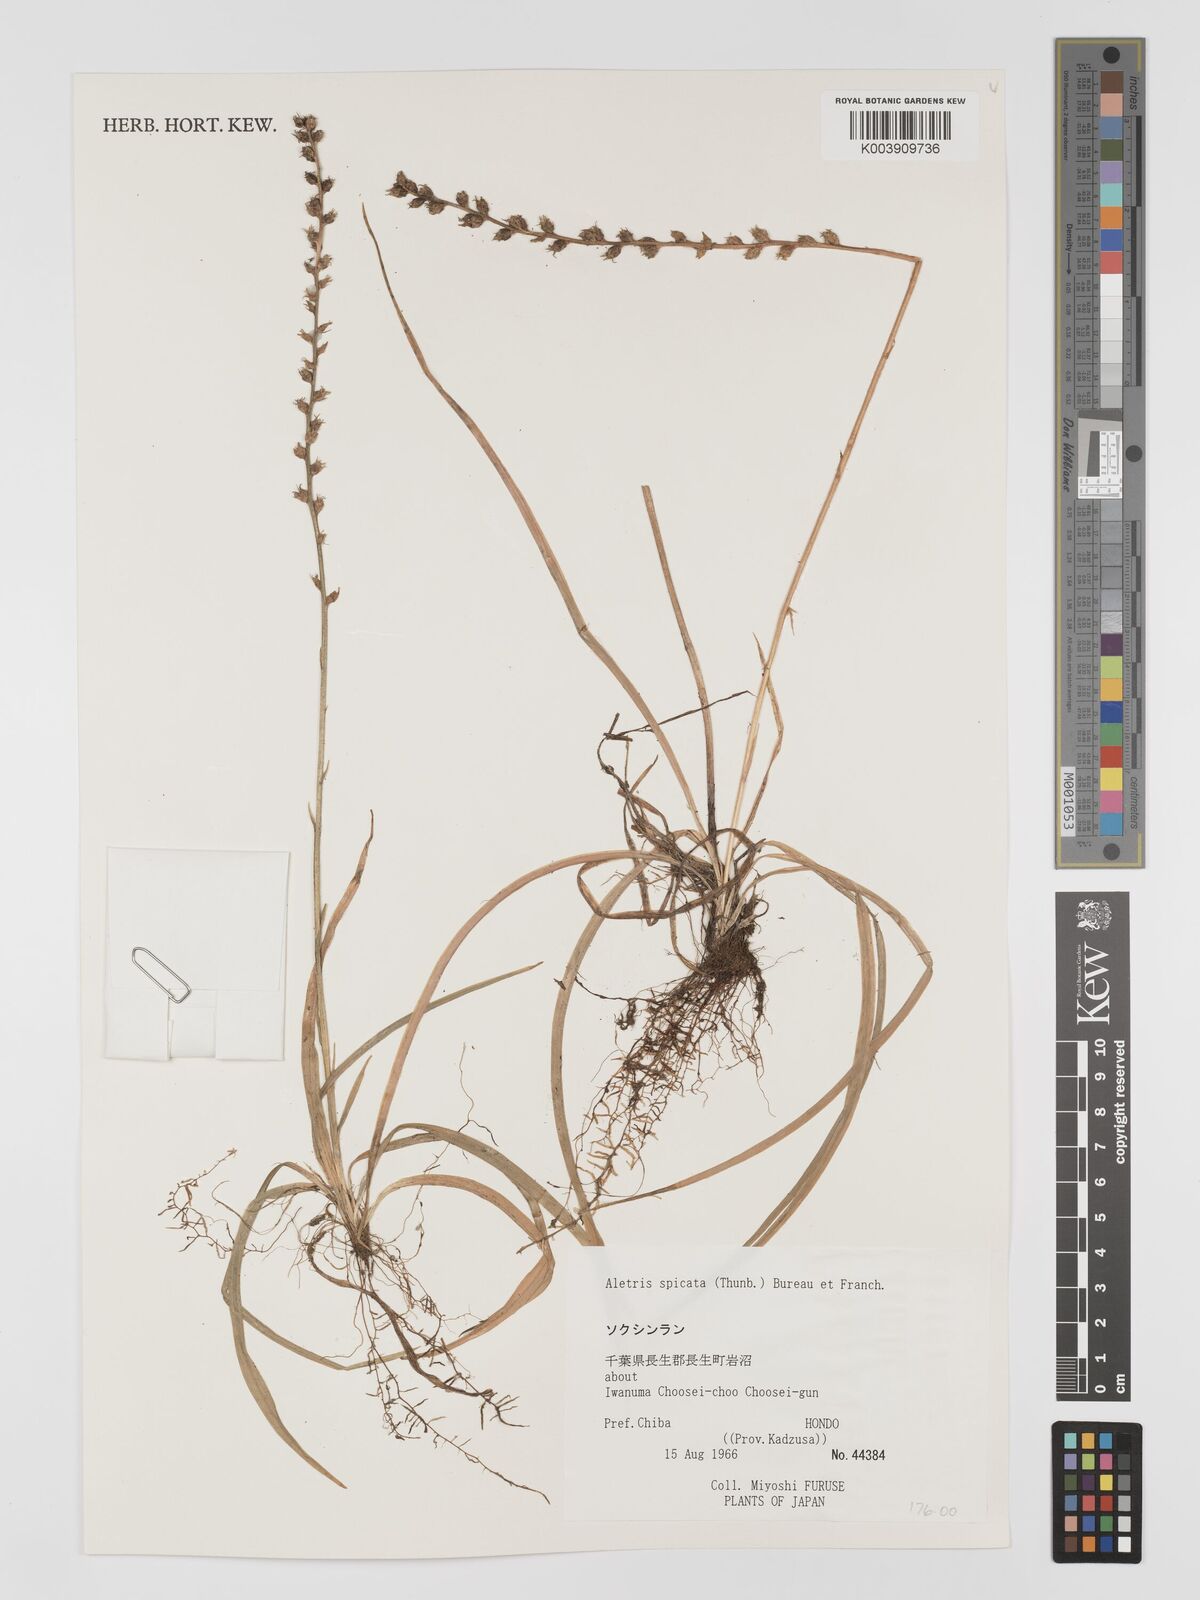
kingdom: Plantae
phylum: Tracheophyta
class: Liliopsida
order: Dioscoreales
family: Nartheciaceae
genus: Aletris
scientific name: Aletris spicata
